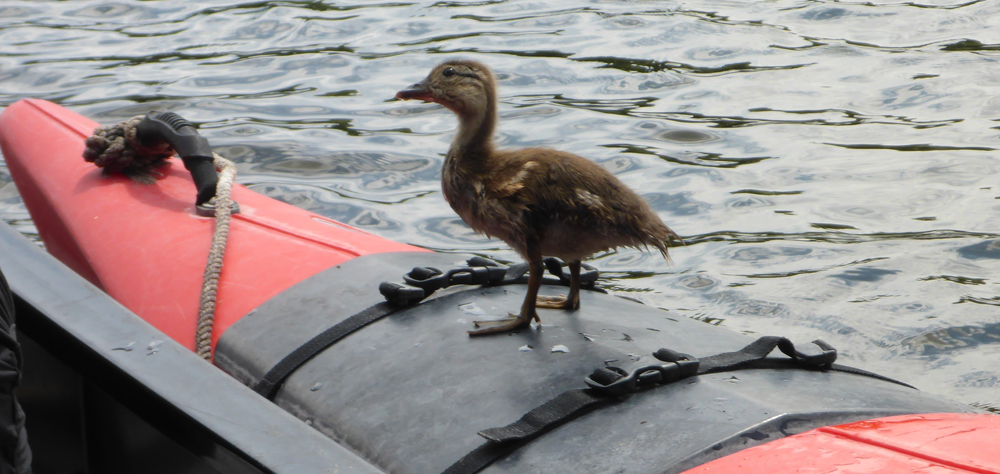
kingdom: Animalia
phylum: Chordata
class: Aves
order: Anseriformes
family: Anatidae
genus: Aix
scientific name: Aix galericulata
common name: Mandarin duck
